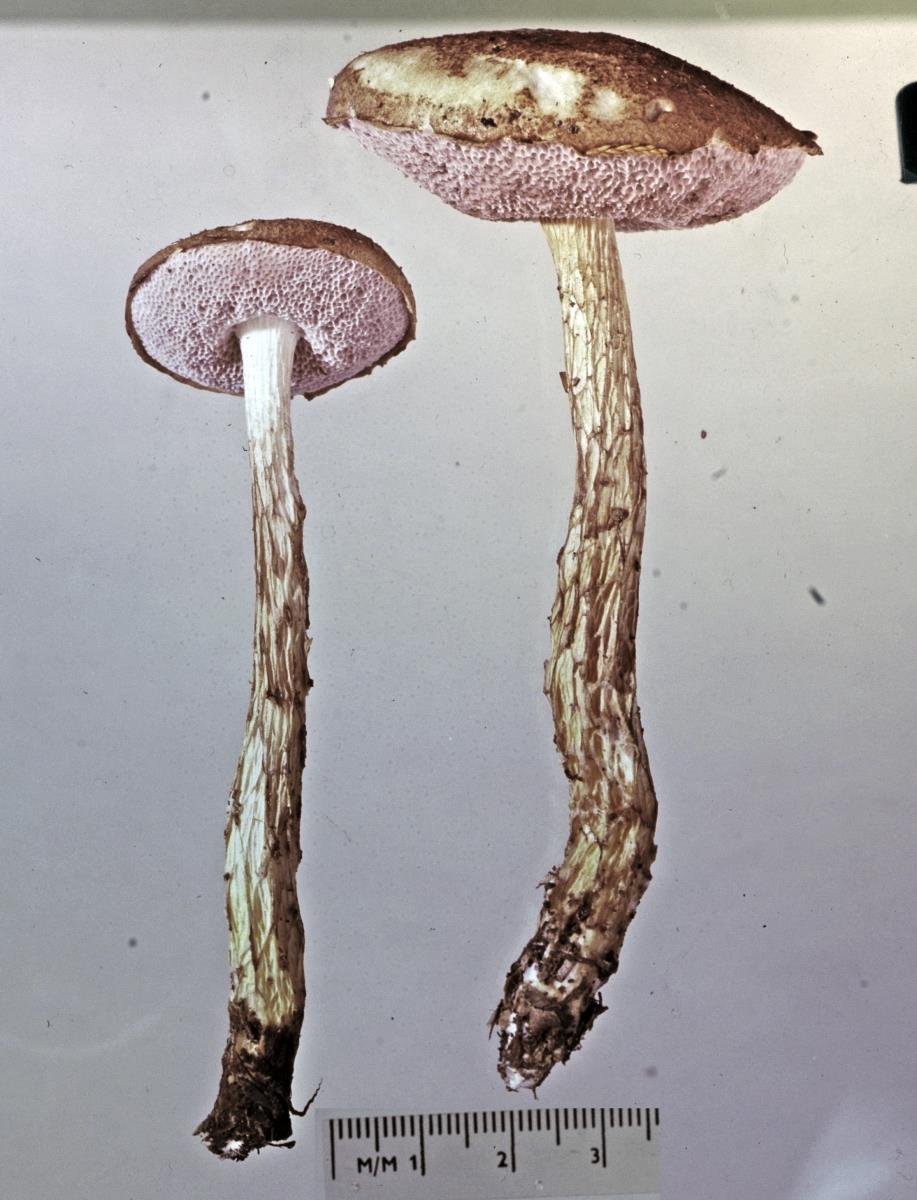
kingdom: Fungi
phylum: Basidiomycota
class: Agaricomycetes
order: Boletales
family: Boletaceae
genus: Austroboletus
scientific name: Austroboletus lacunosus
